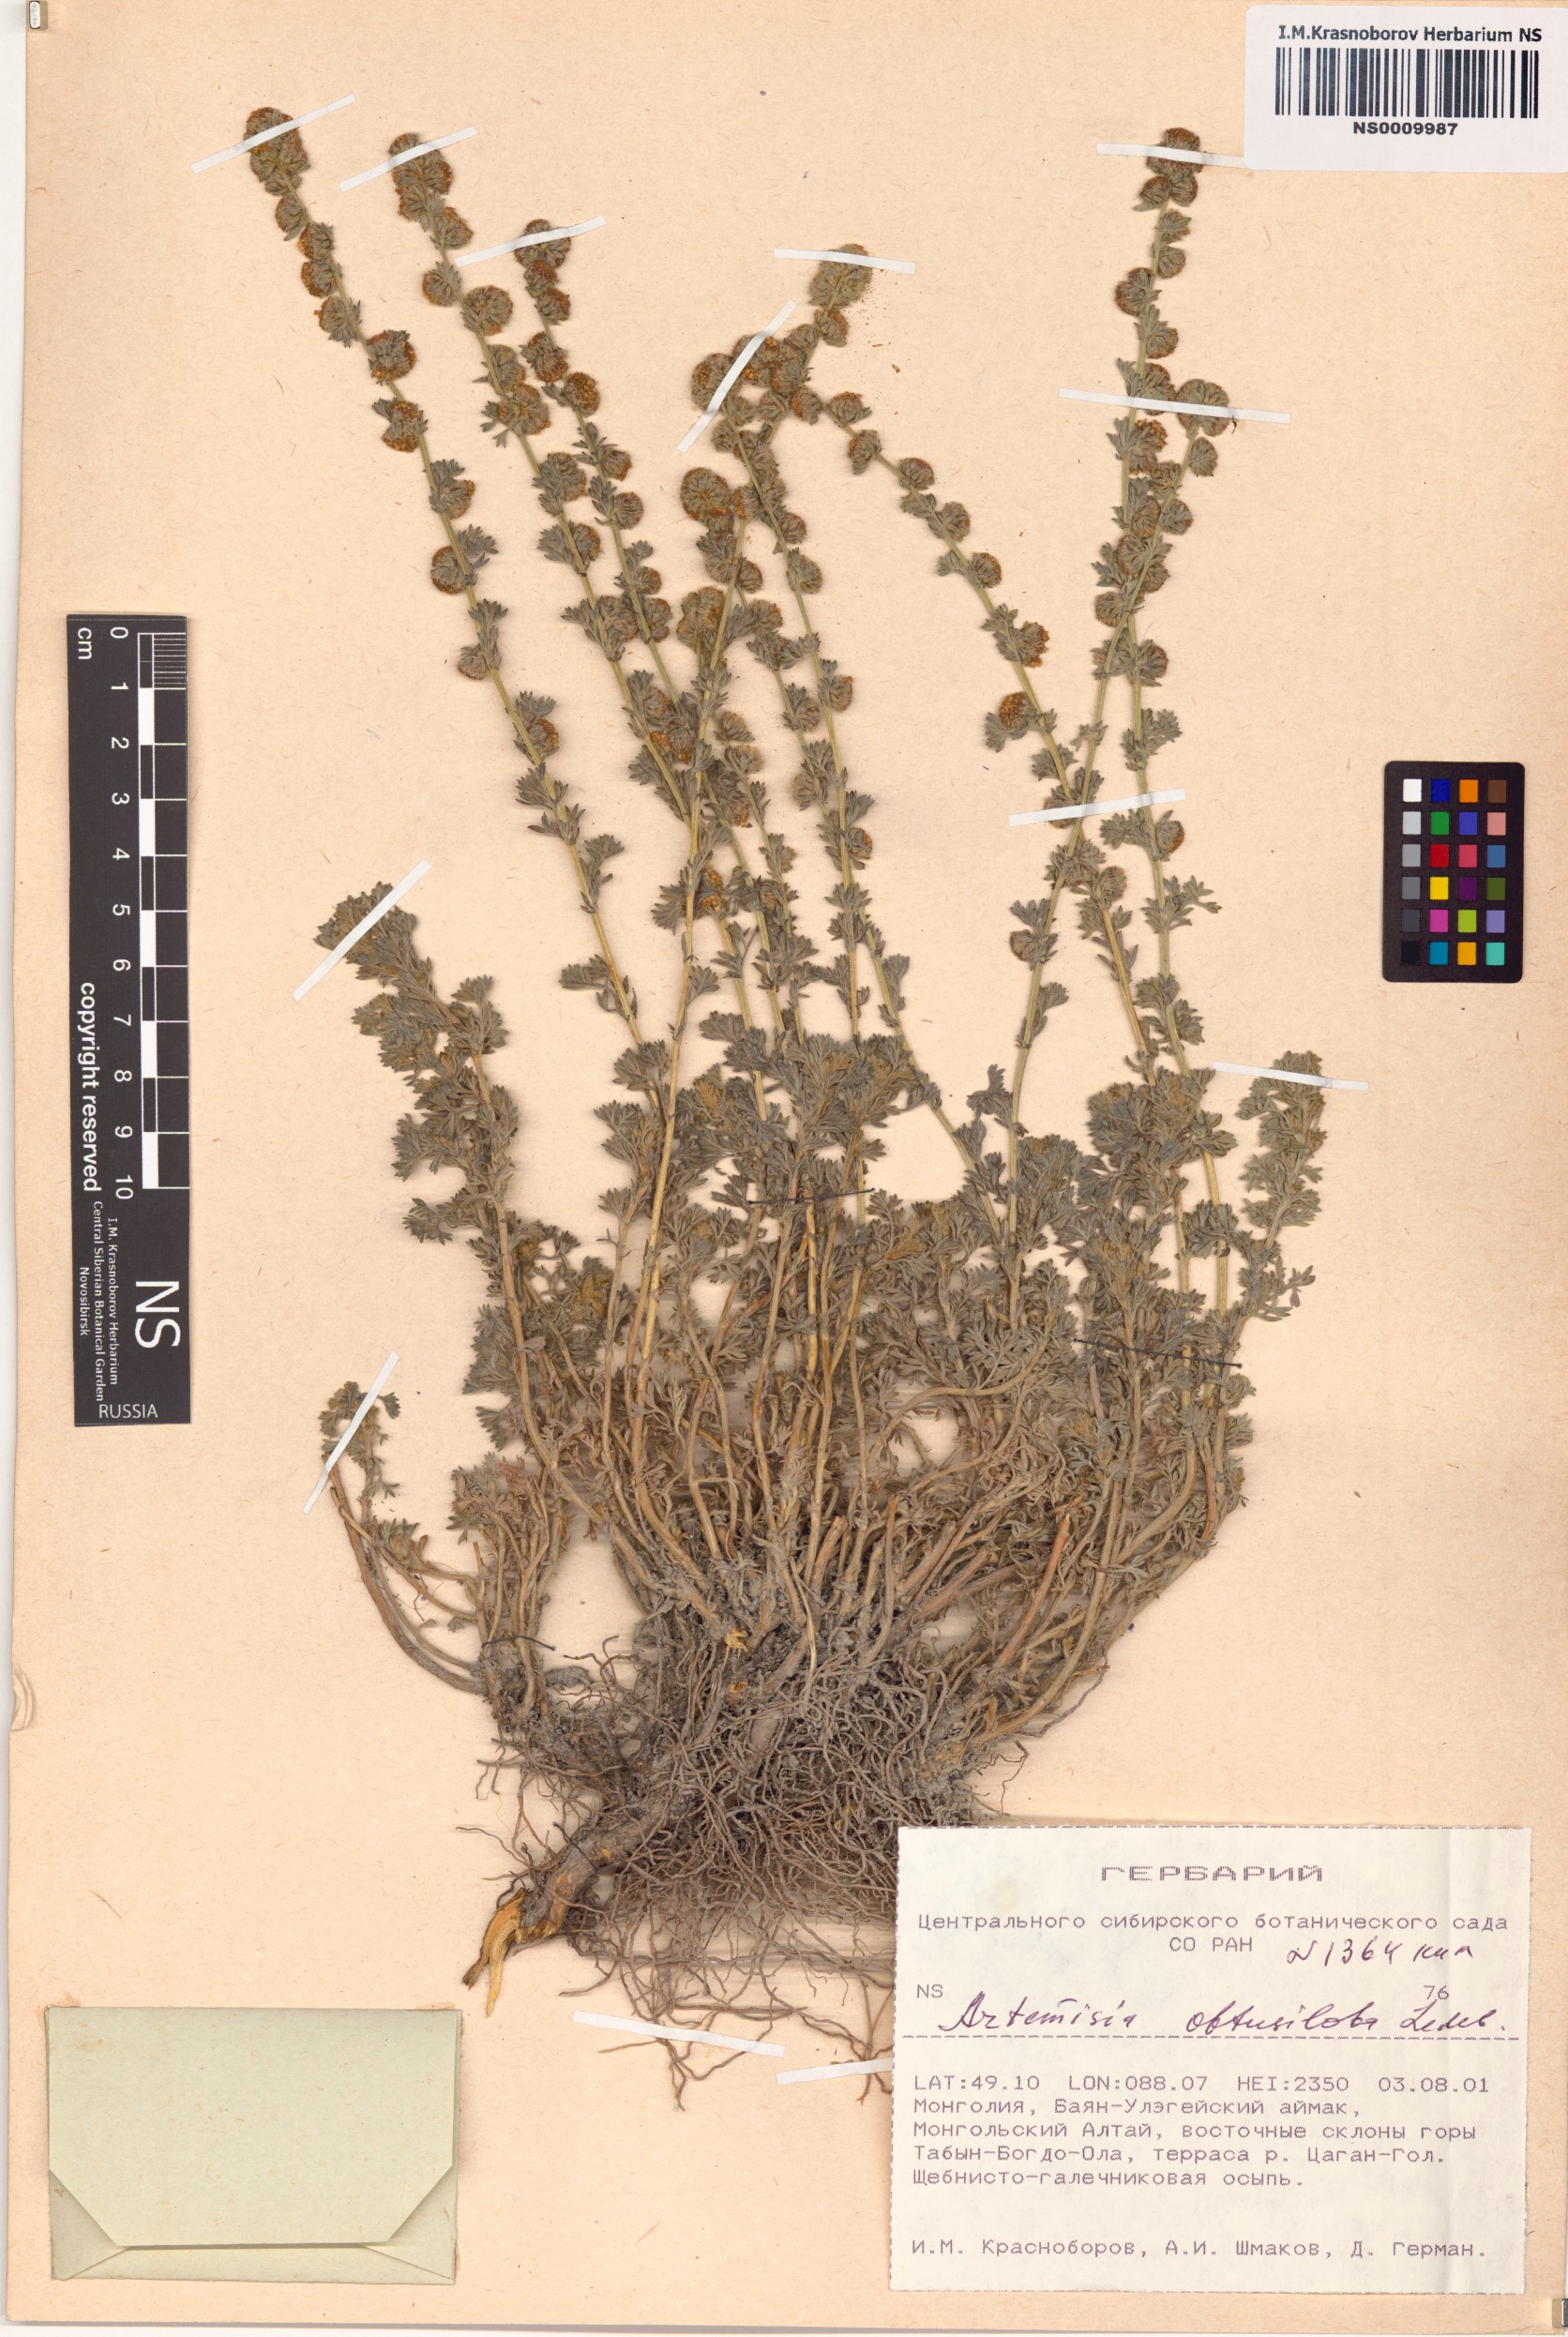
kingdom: Plantae
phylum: Tracheophyta
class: Magnoliopsida
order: Asterales
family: Asteraceae
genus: Artemisia
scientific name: Artemisia obtusiloba
